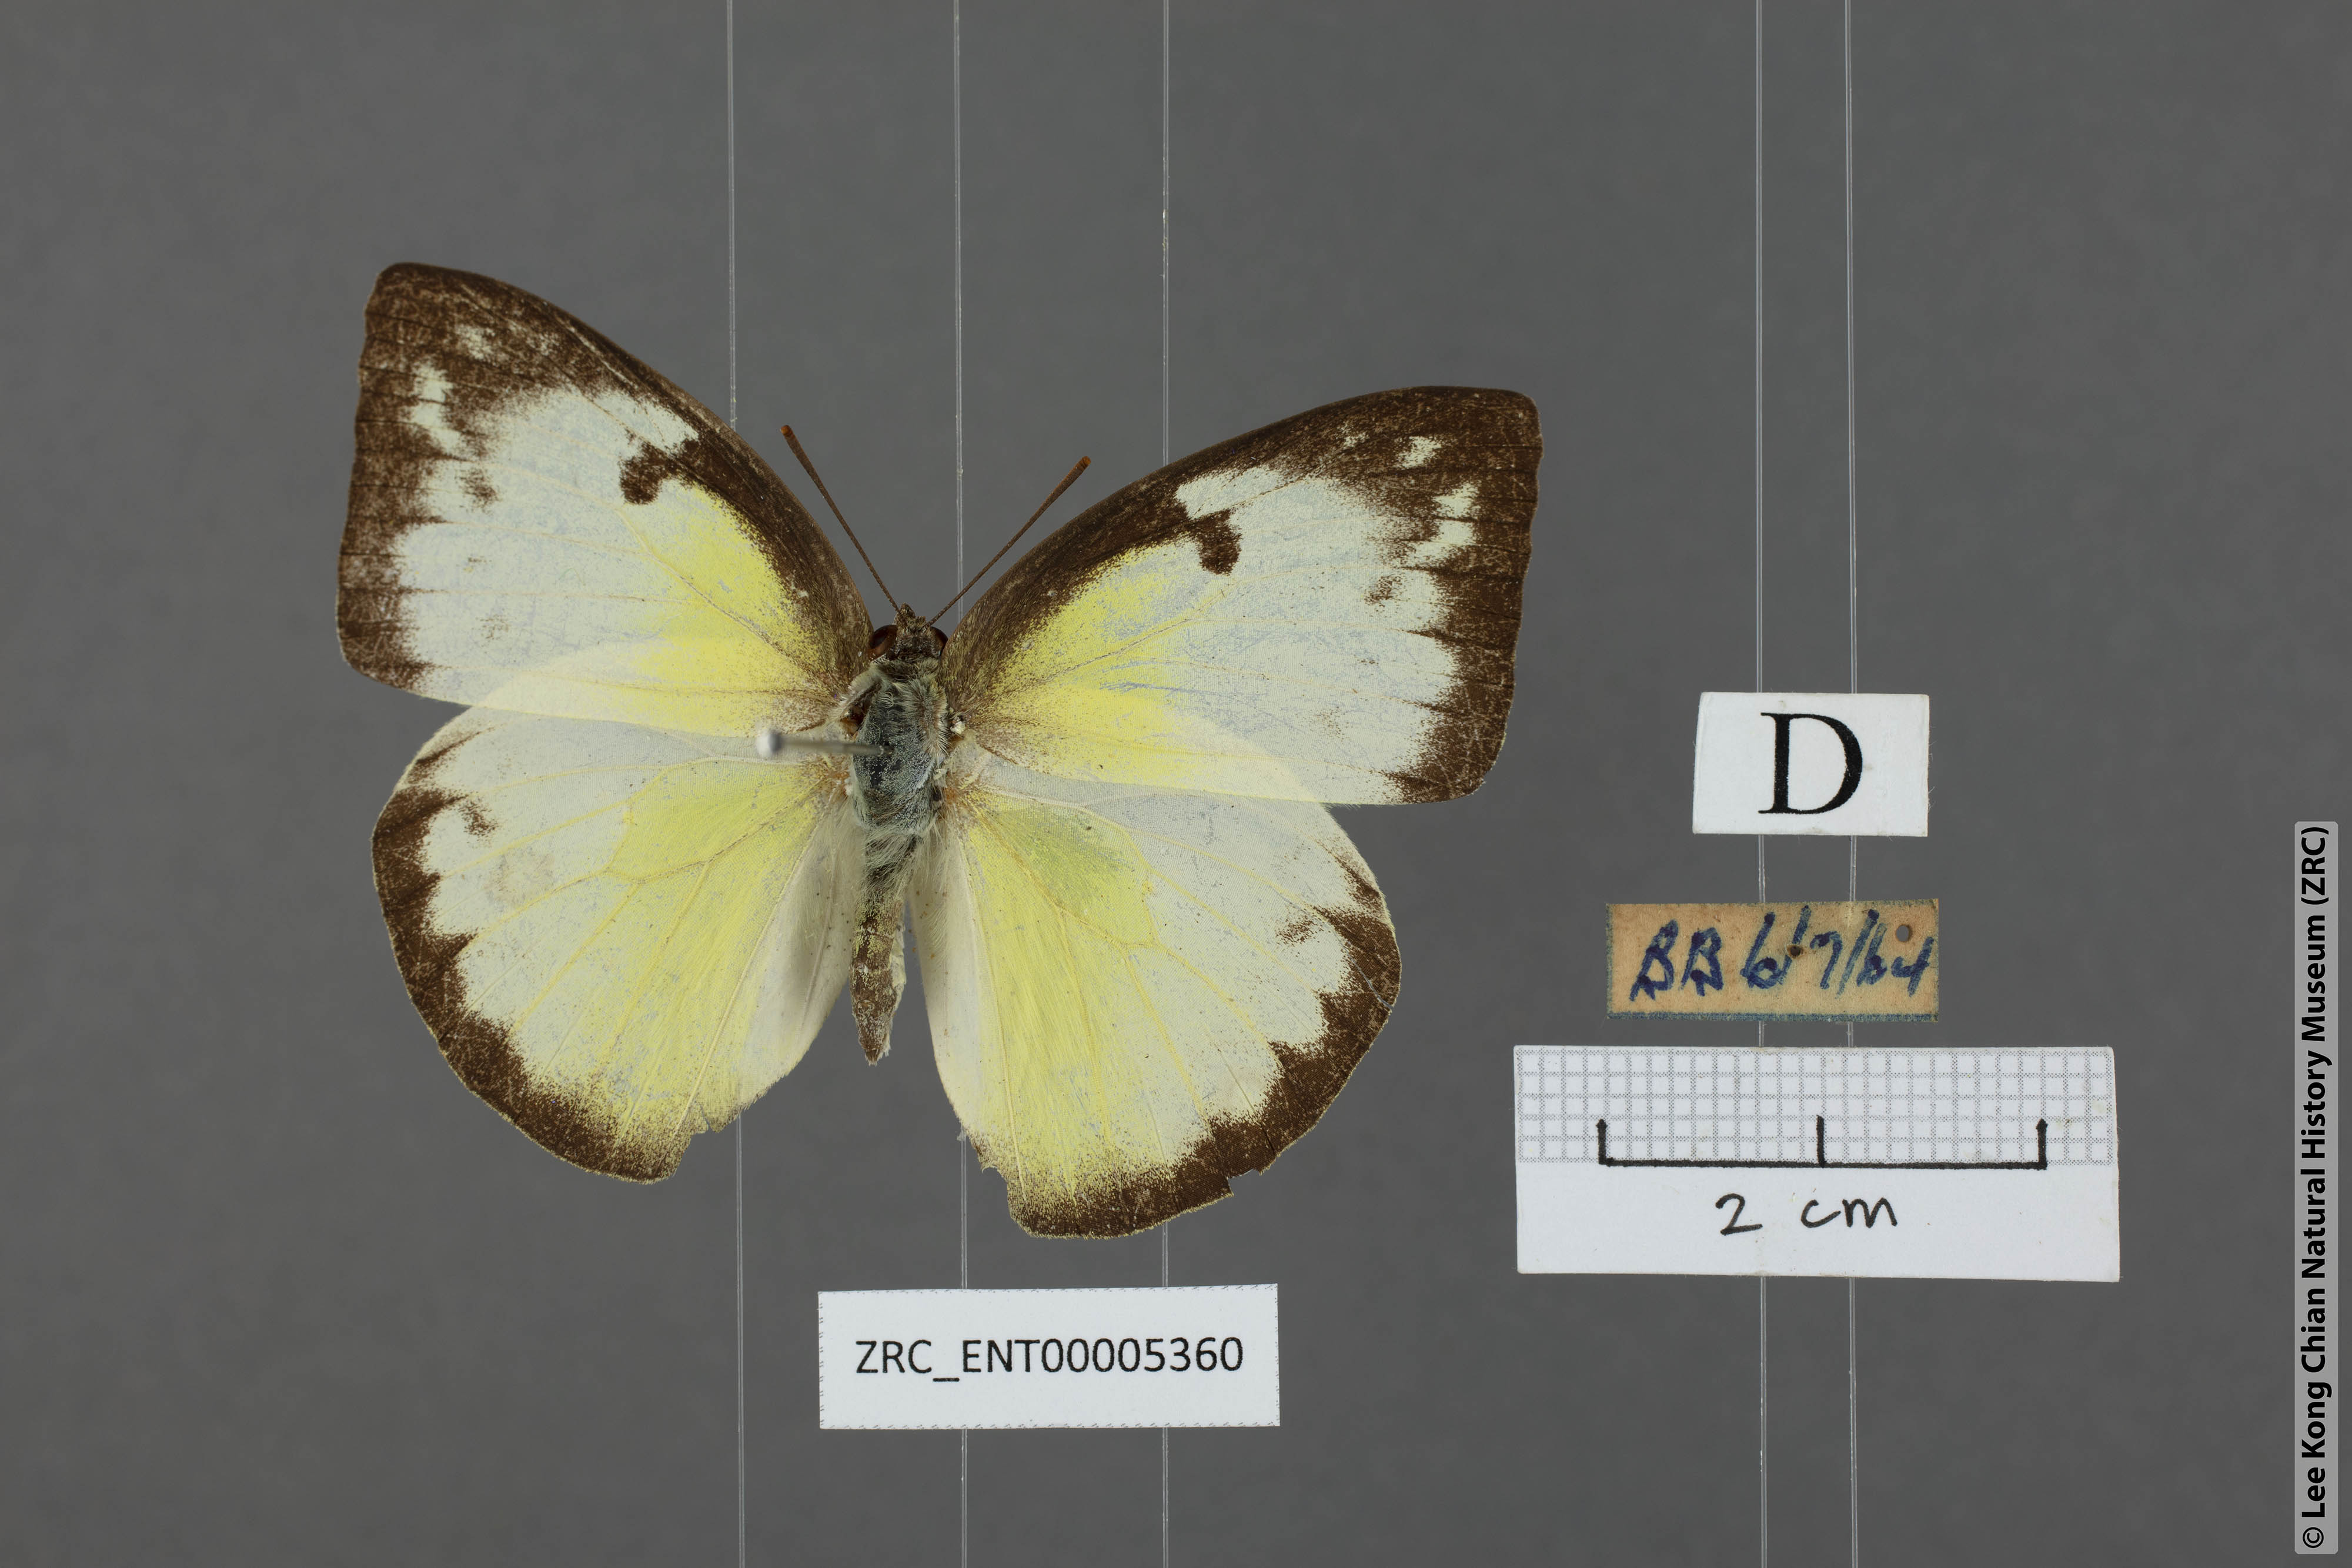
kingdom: Animalia
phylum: Arthropoda
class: Insecta
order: Lepidoptera
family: Pieridae
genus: Catopsilia
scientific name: Catopsilia pomona
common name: Common emigrant
